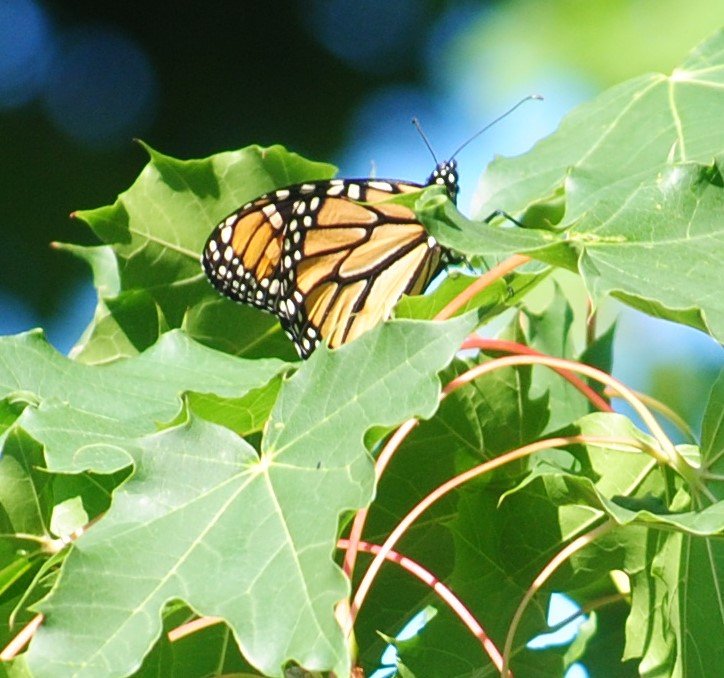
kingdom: Animalia
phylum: Arthropoda
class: Insecta
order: Lepidoptera
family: Nymphalidae
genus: Danaus
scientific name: Danaus plexippus
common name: Monarch
